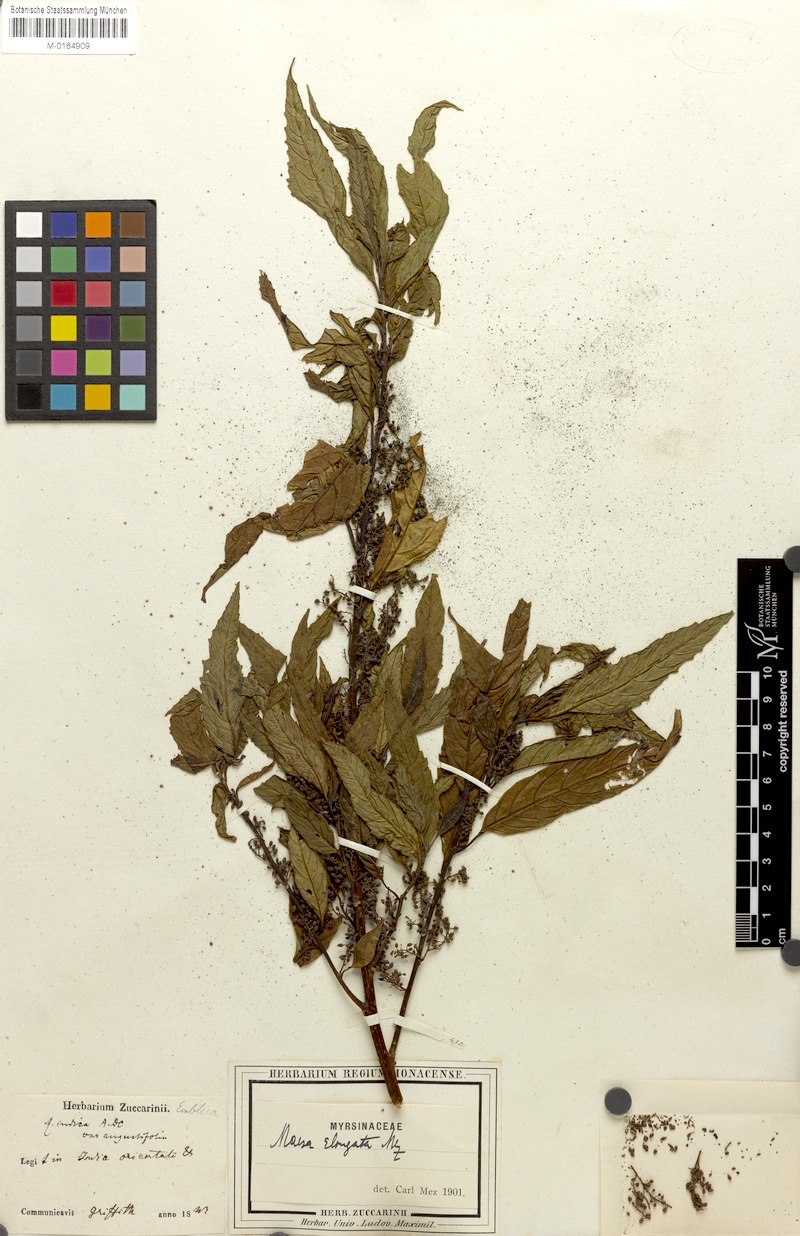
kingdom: Plantae
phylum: Tracheophyta
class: Magnoliopsida
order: Ericales
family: Primulaceae
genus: Maesa
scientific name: Maesa montana
